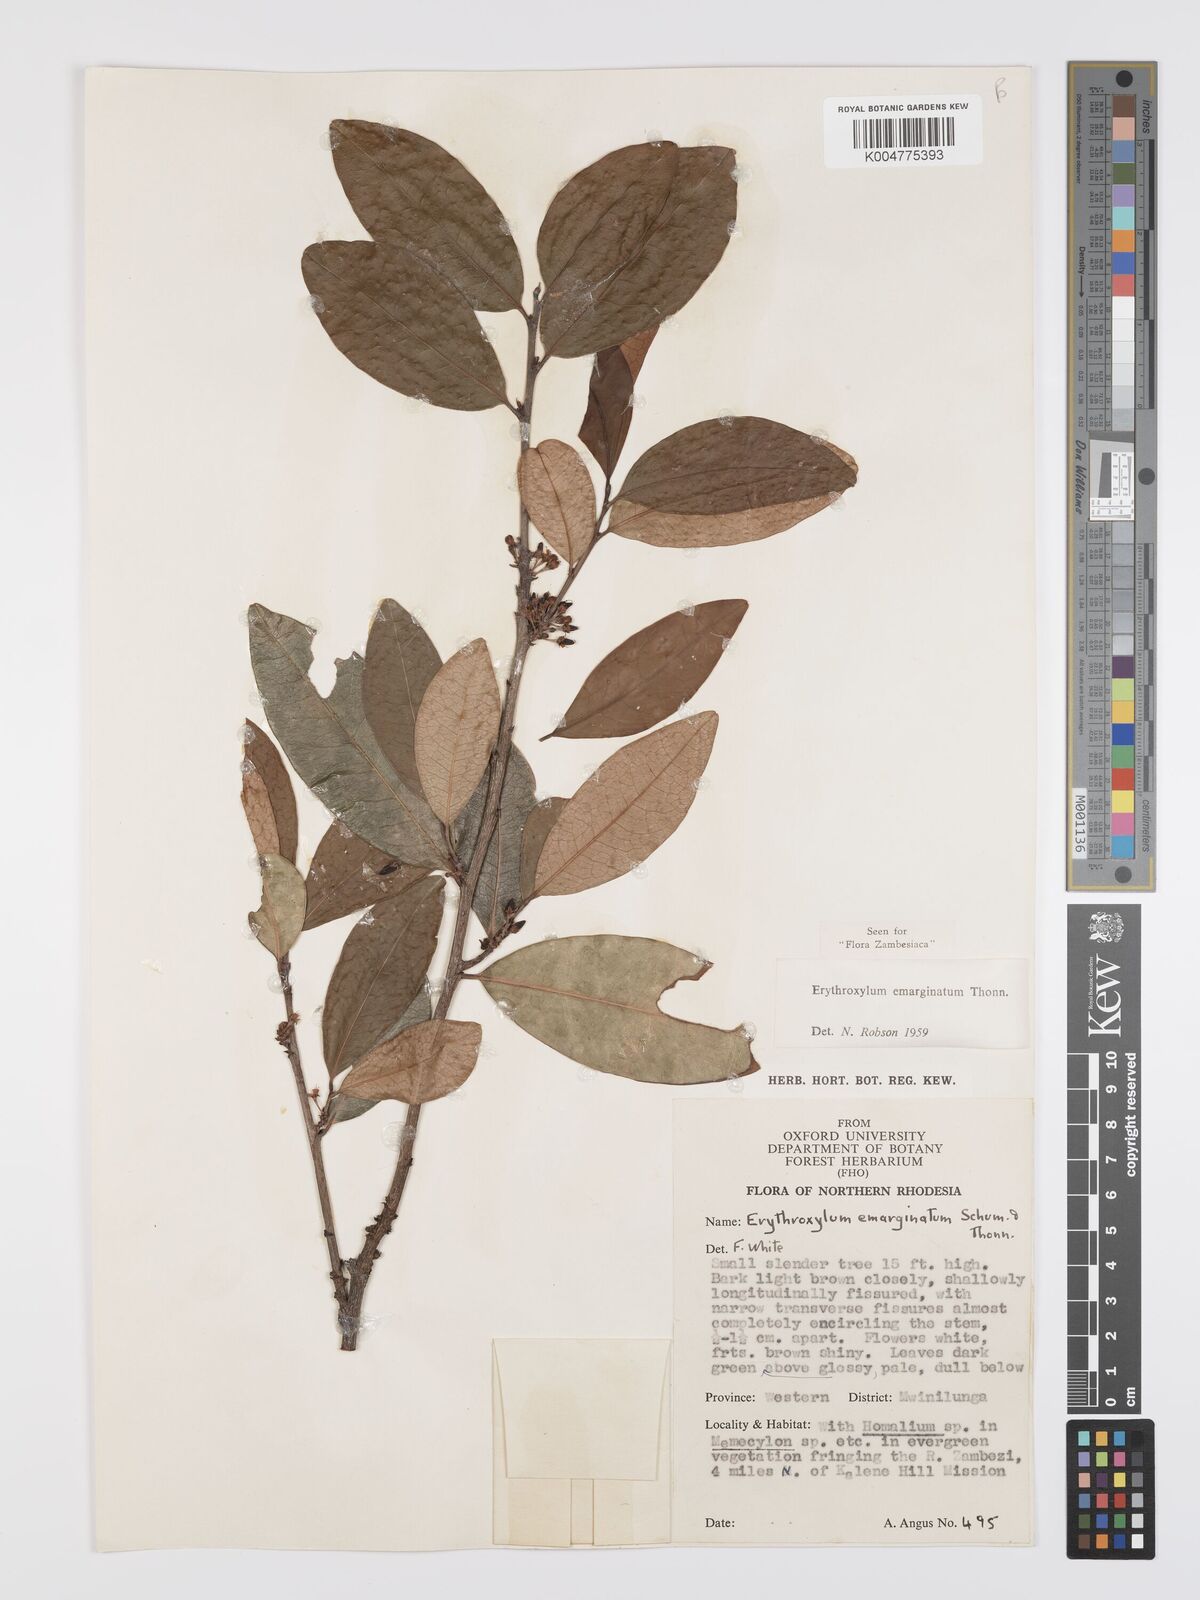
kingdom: Plantae
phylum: Tracheophyta
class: Magnoliopsida
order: Malpighiales
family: Erythroxylaceae
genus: Erythroxylum
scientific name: Erythroxylum emarginatum
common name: African coca-tree
